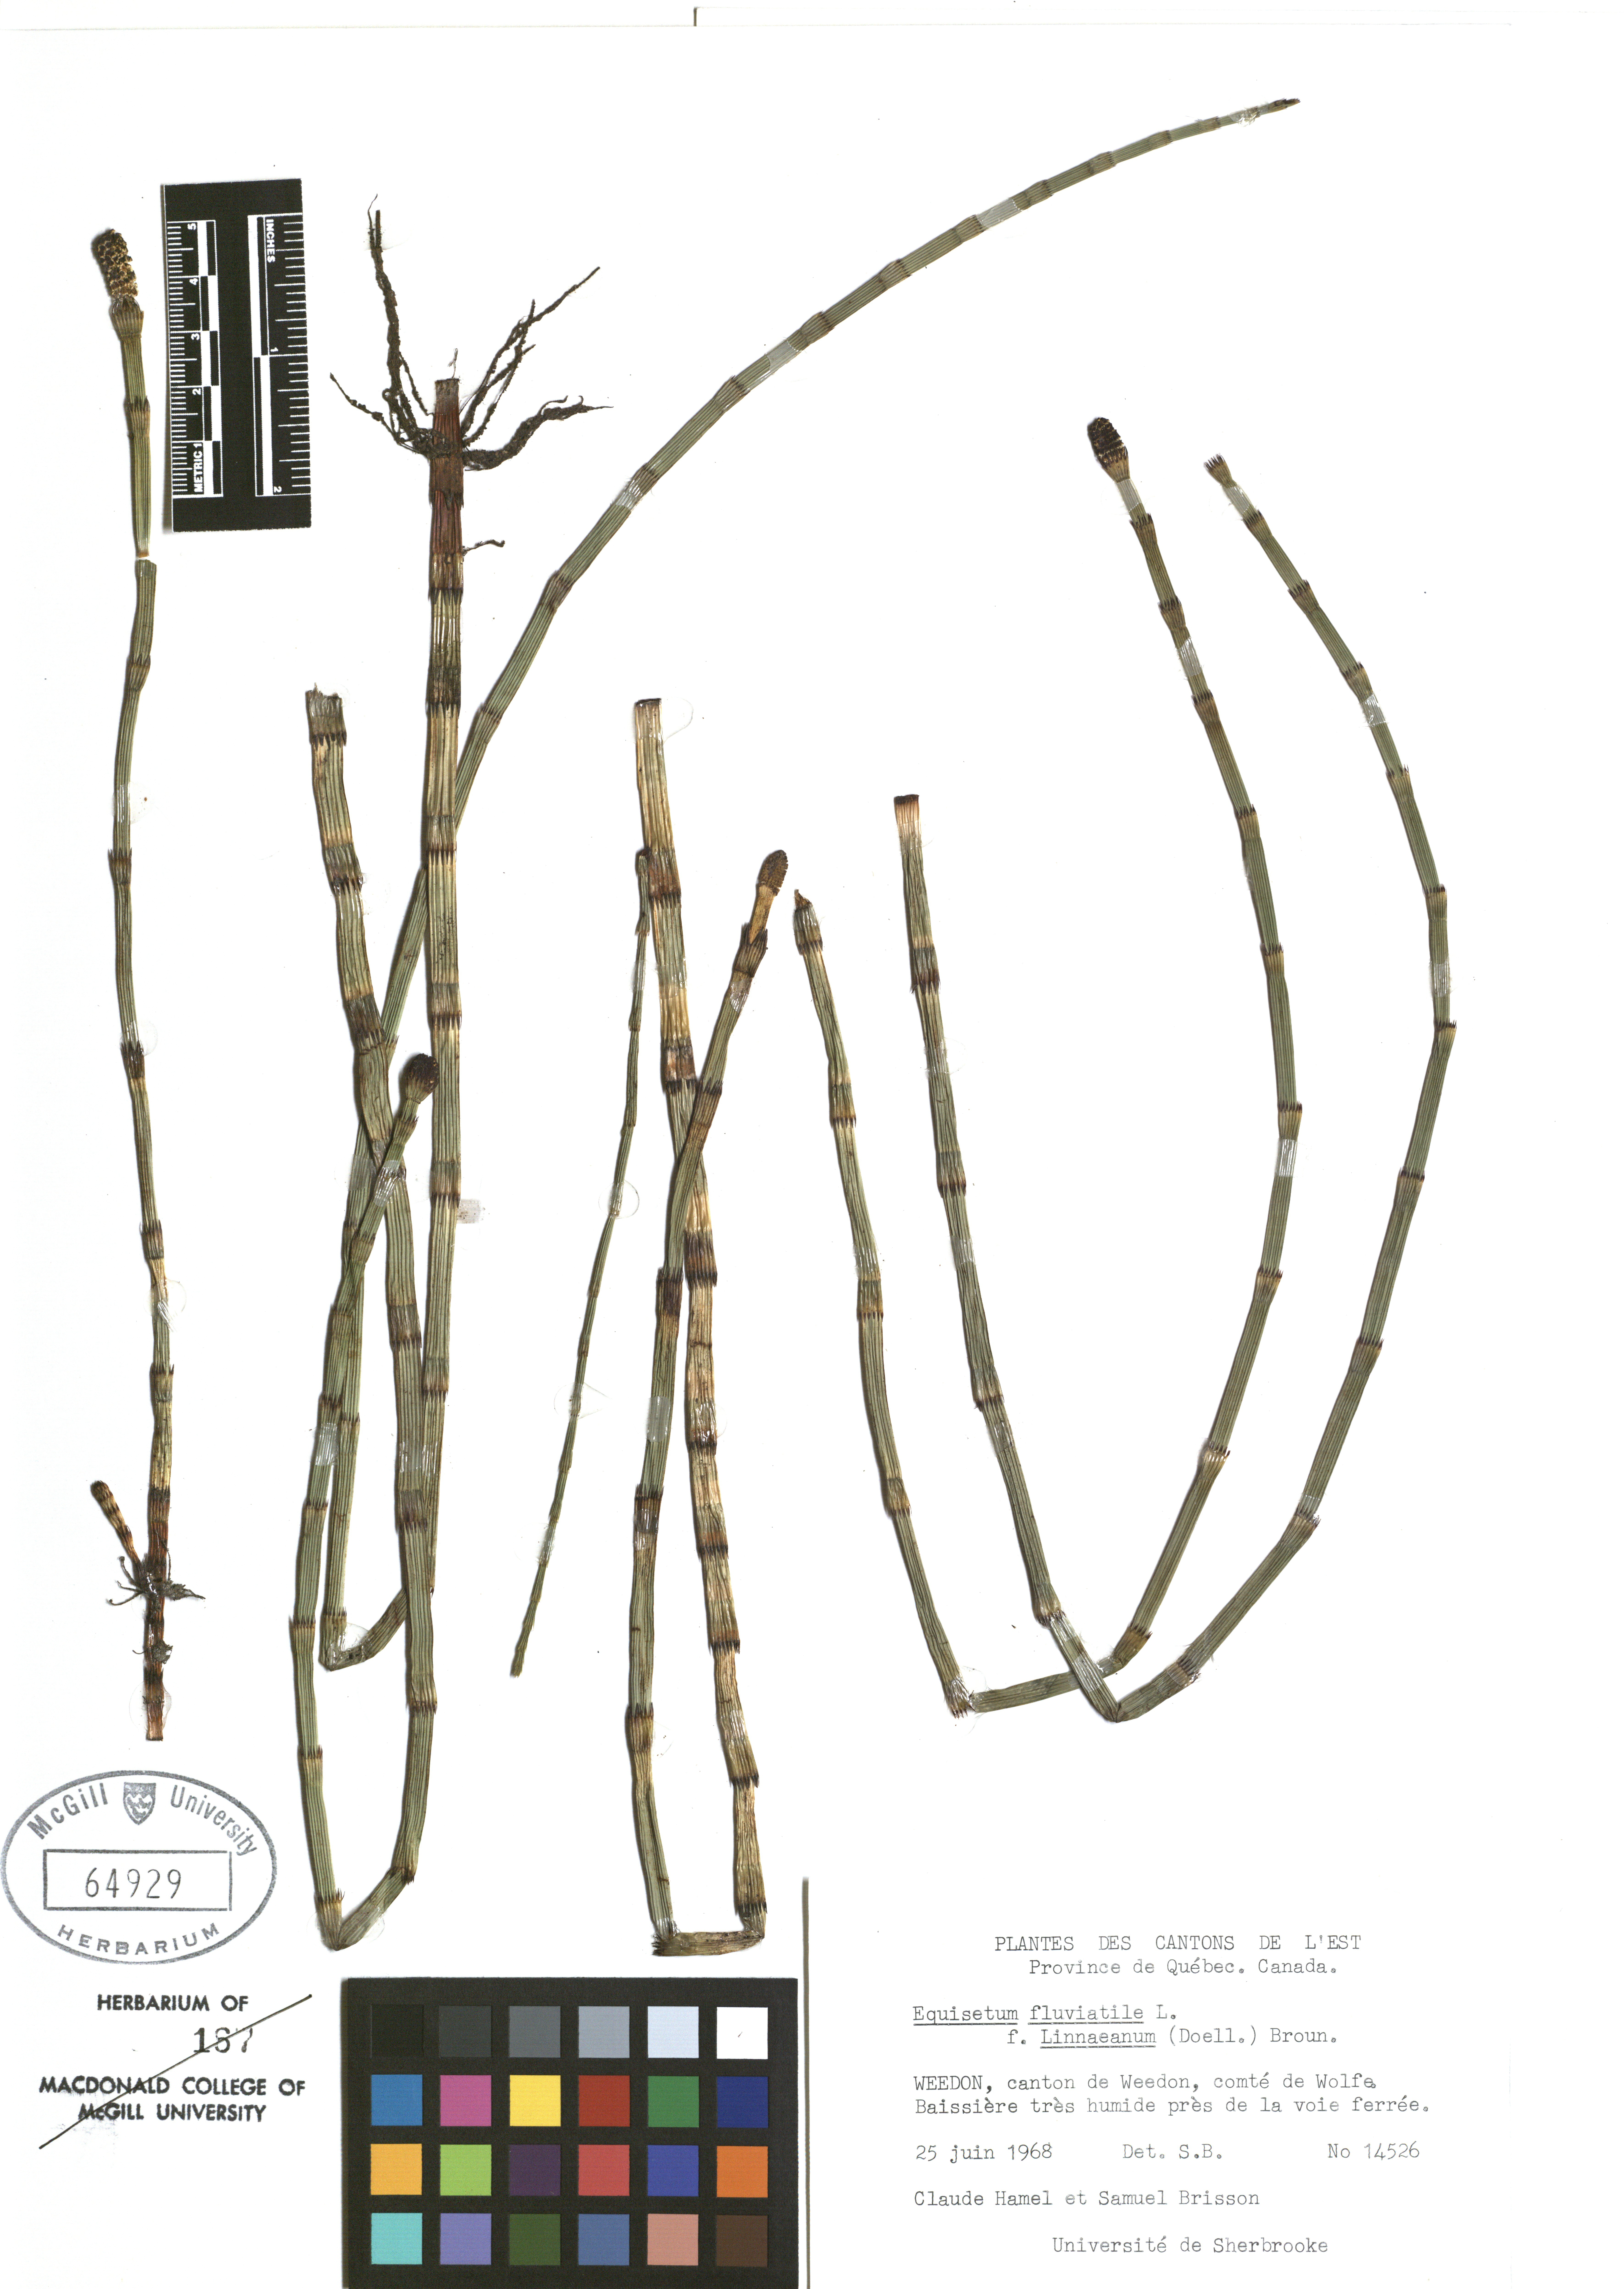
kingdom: Plantae
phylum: Tracheophyta
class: Polypodiopsida
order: Equisetales
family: Equisetaceae
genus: Equisetum
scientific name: Equisetum fluviatile
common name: Water horsetail
